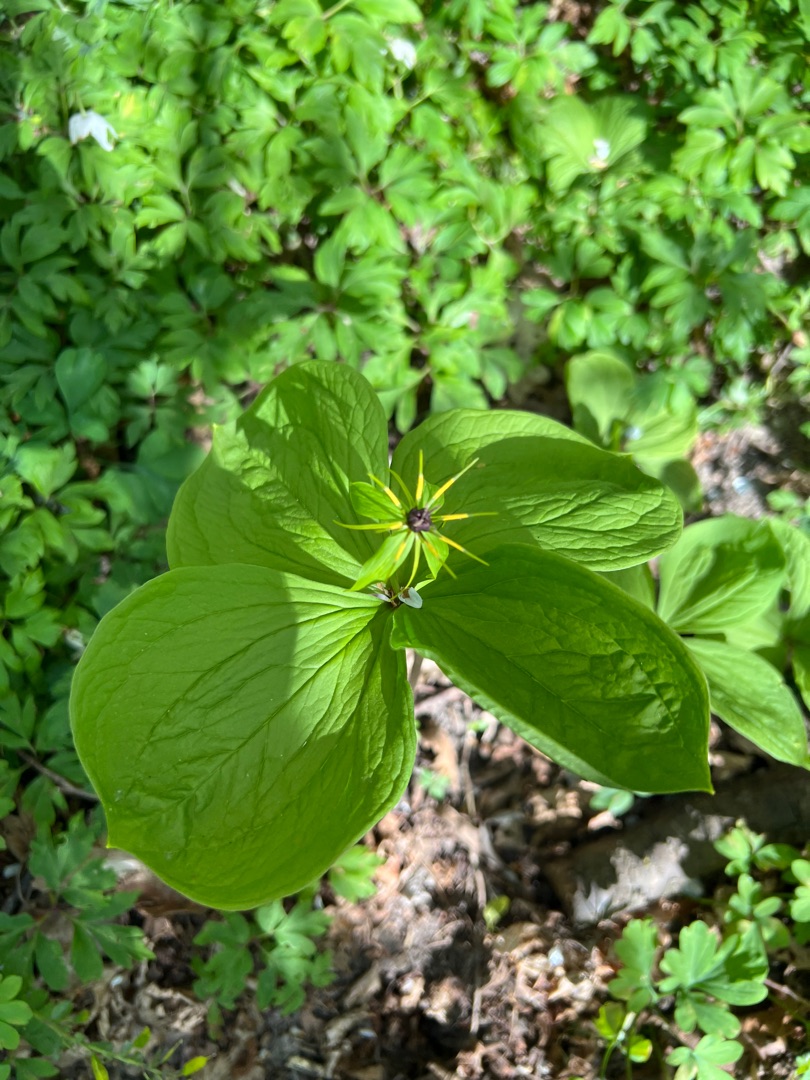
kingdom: Plantae
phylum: Tracheophyta
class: Liliopsida
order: Liliales
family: Melanthiaceae
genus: Paris
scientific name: Paris quadrifolia
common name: Firblad
